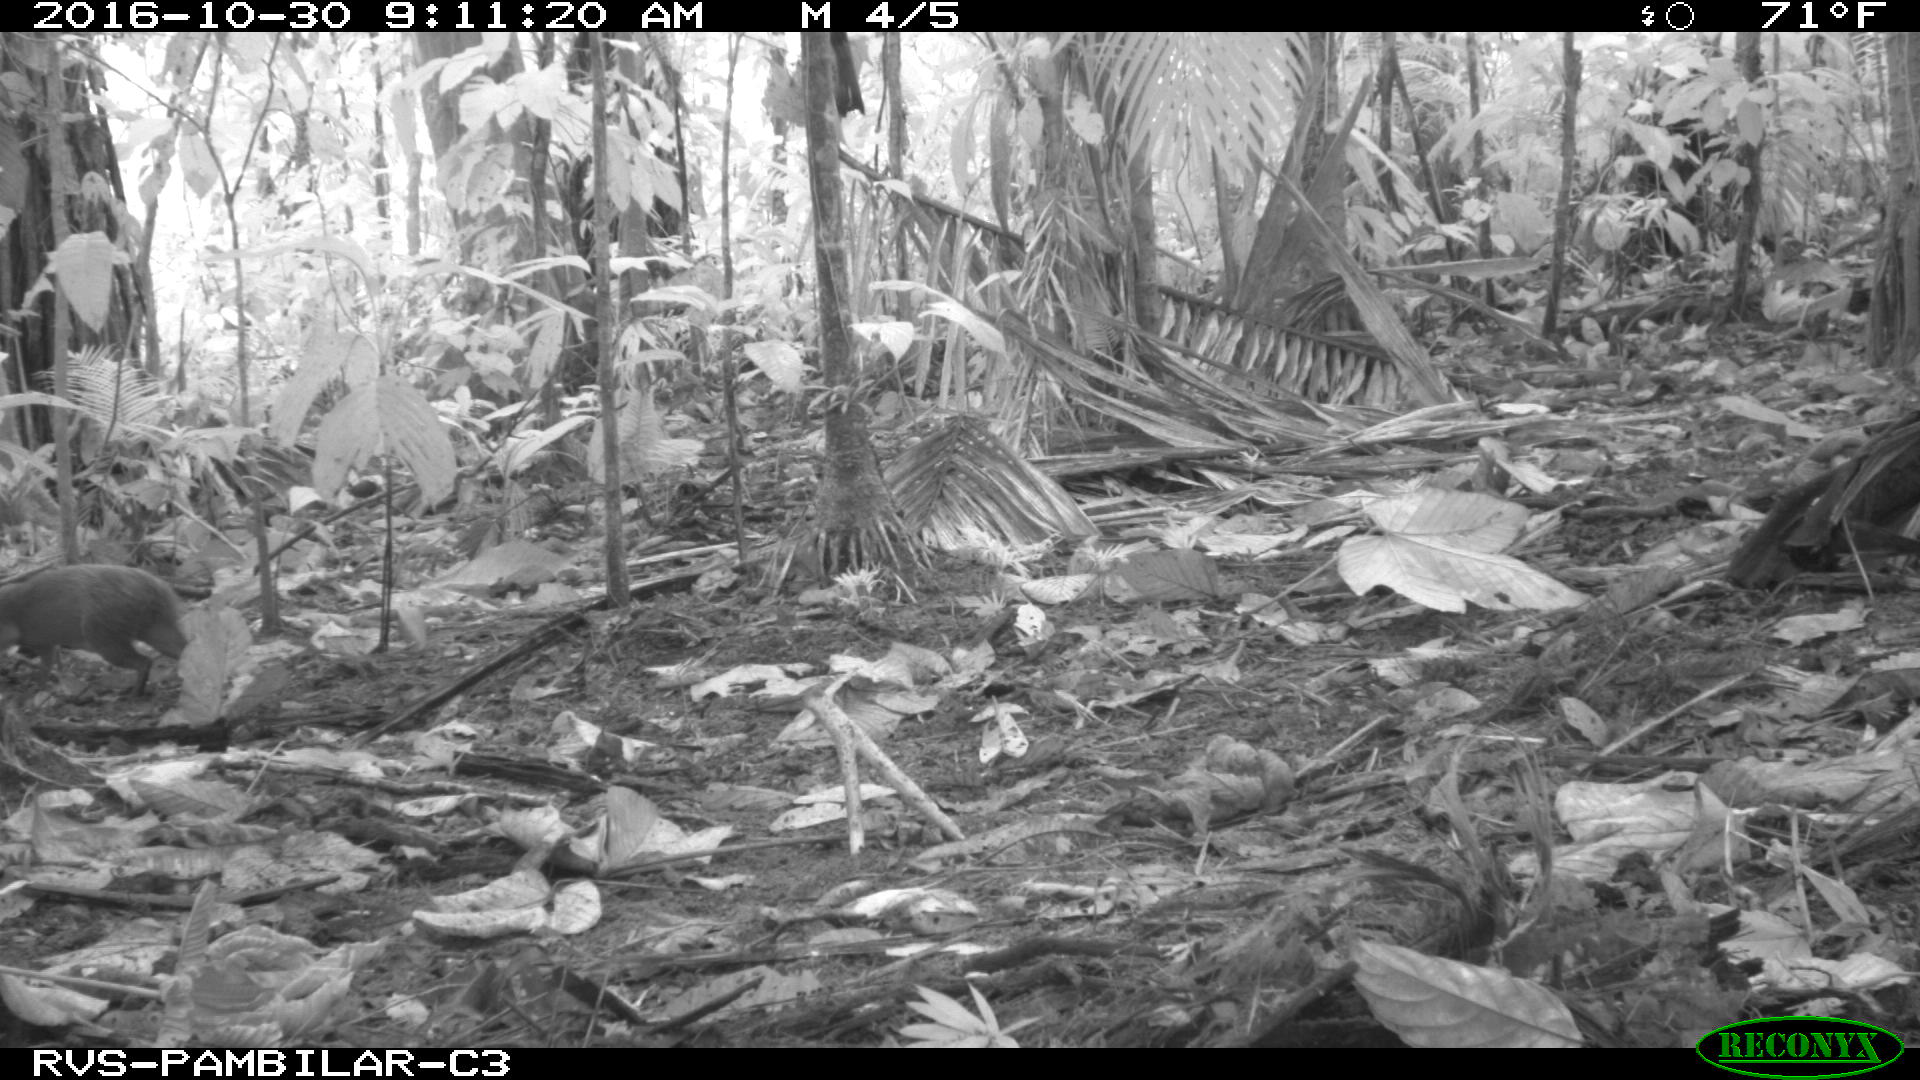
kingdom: Animalia
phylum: Chordata
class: Mammalia
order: Rodentia
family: Dasyproctidae
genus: Dasyprocta
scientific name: Dasyprocta punctata
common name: Central american agouti
